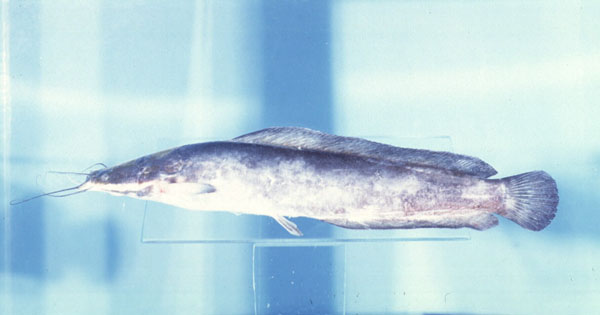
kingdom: Animalia
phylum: Chordata
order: Siluriformes
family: Clariidae
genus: Clarias
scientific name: Clarias gariepinus
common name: African catfish
